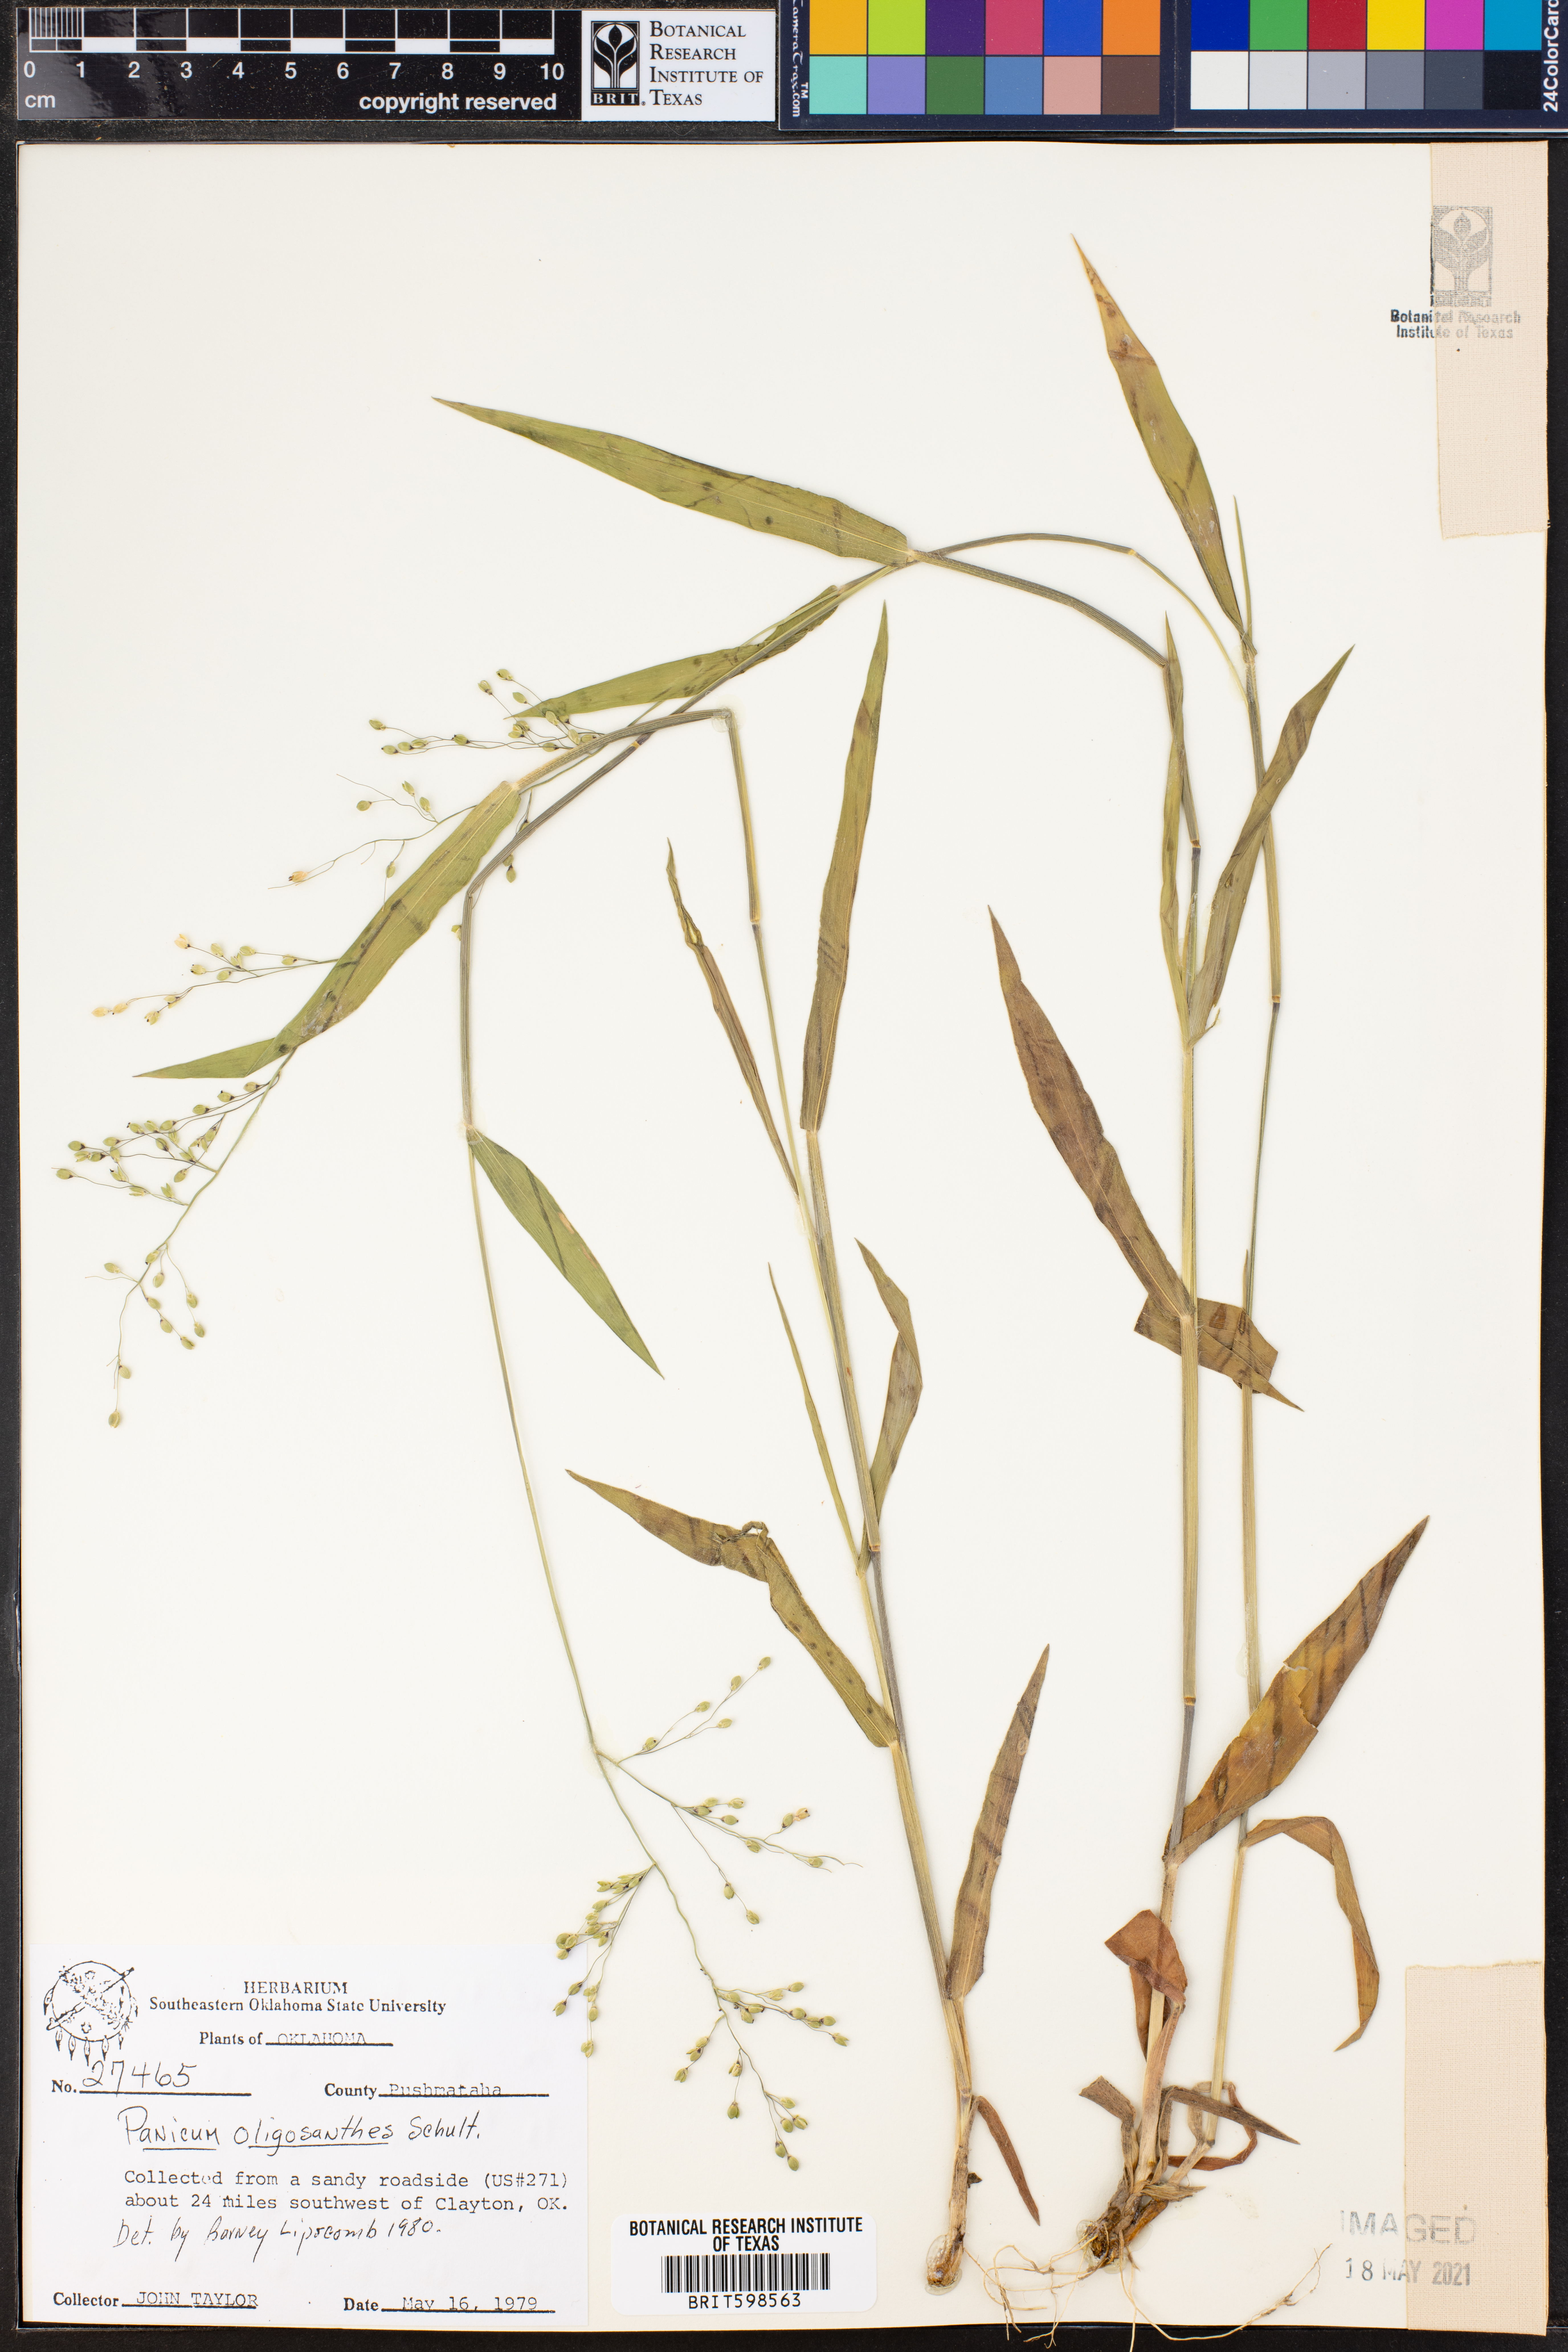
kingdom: Plantae
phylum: Tracheophyta
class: Liliopsida
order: Poales
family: Poaceae
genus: Dichanthelium
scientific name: Dichanthelium oligosanthes
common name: Few-anther obscuregrass
